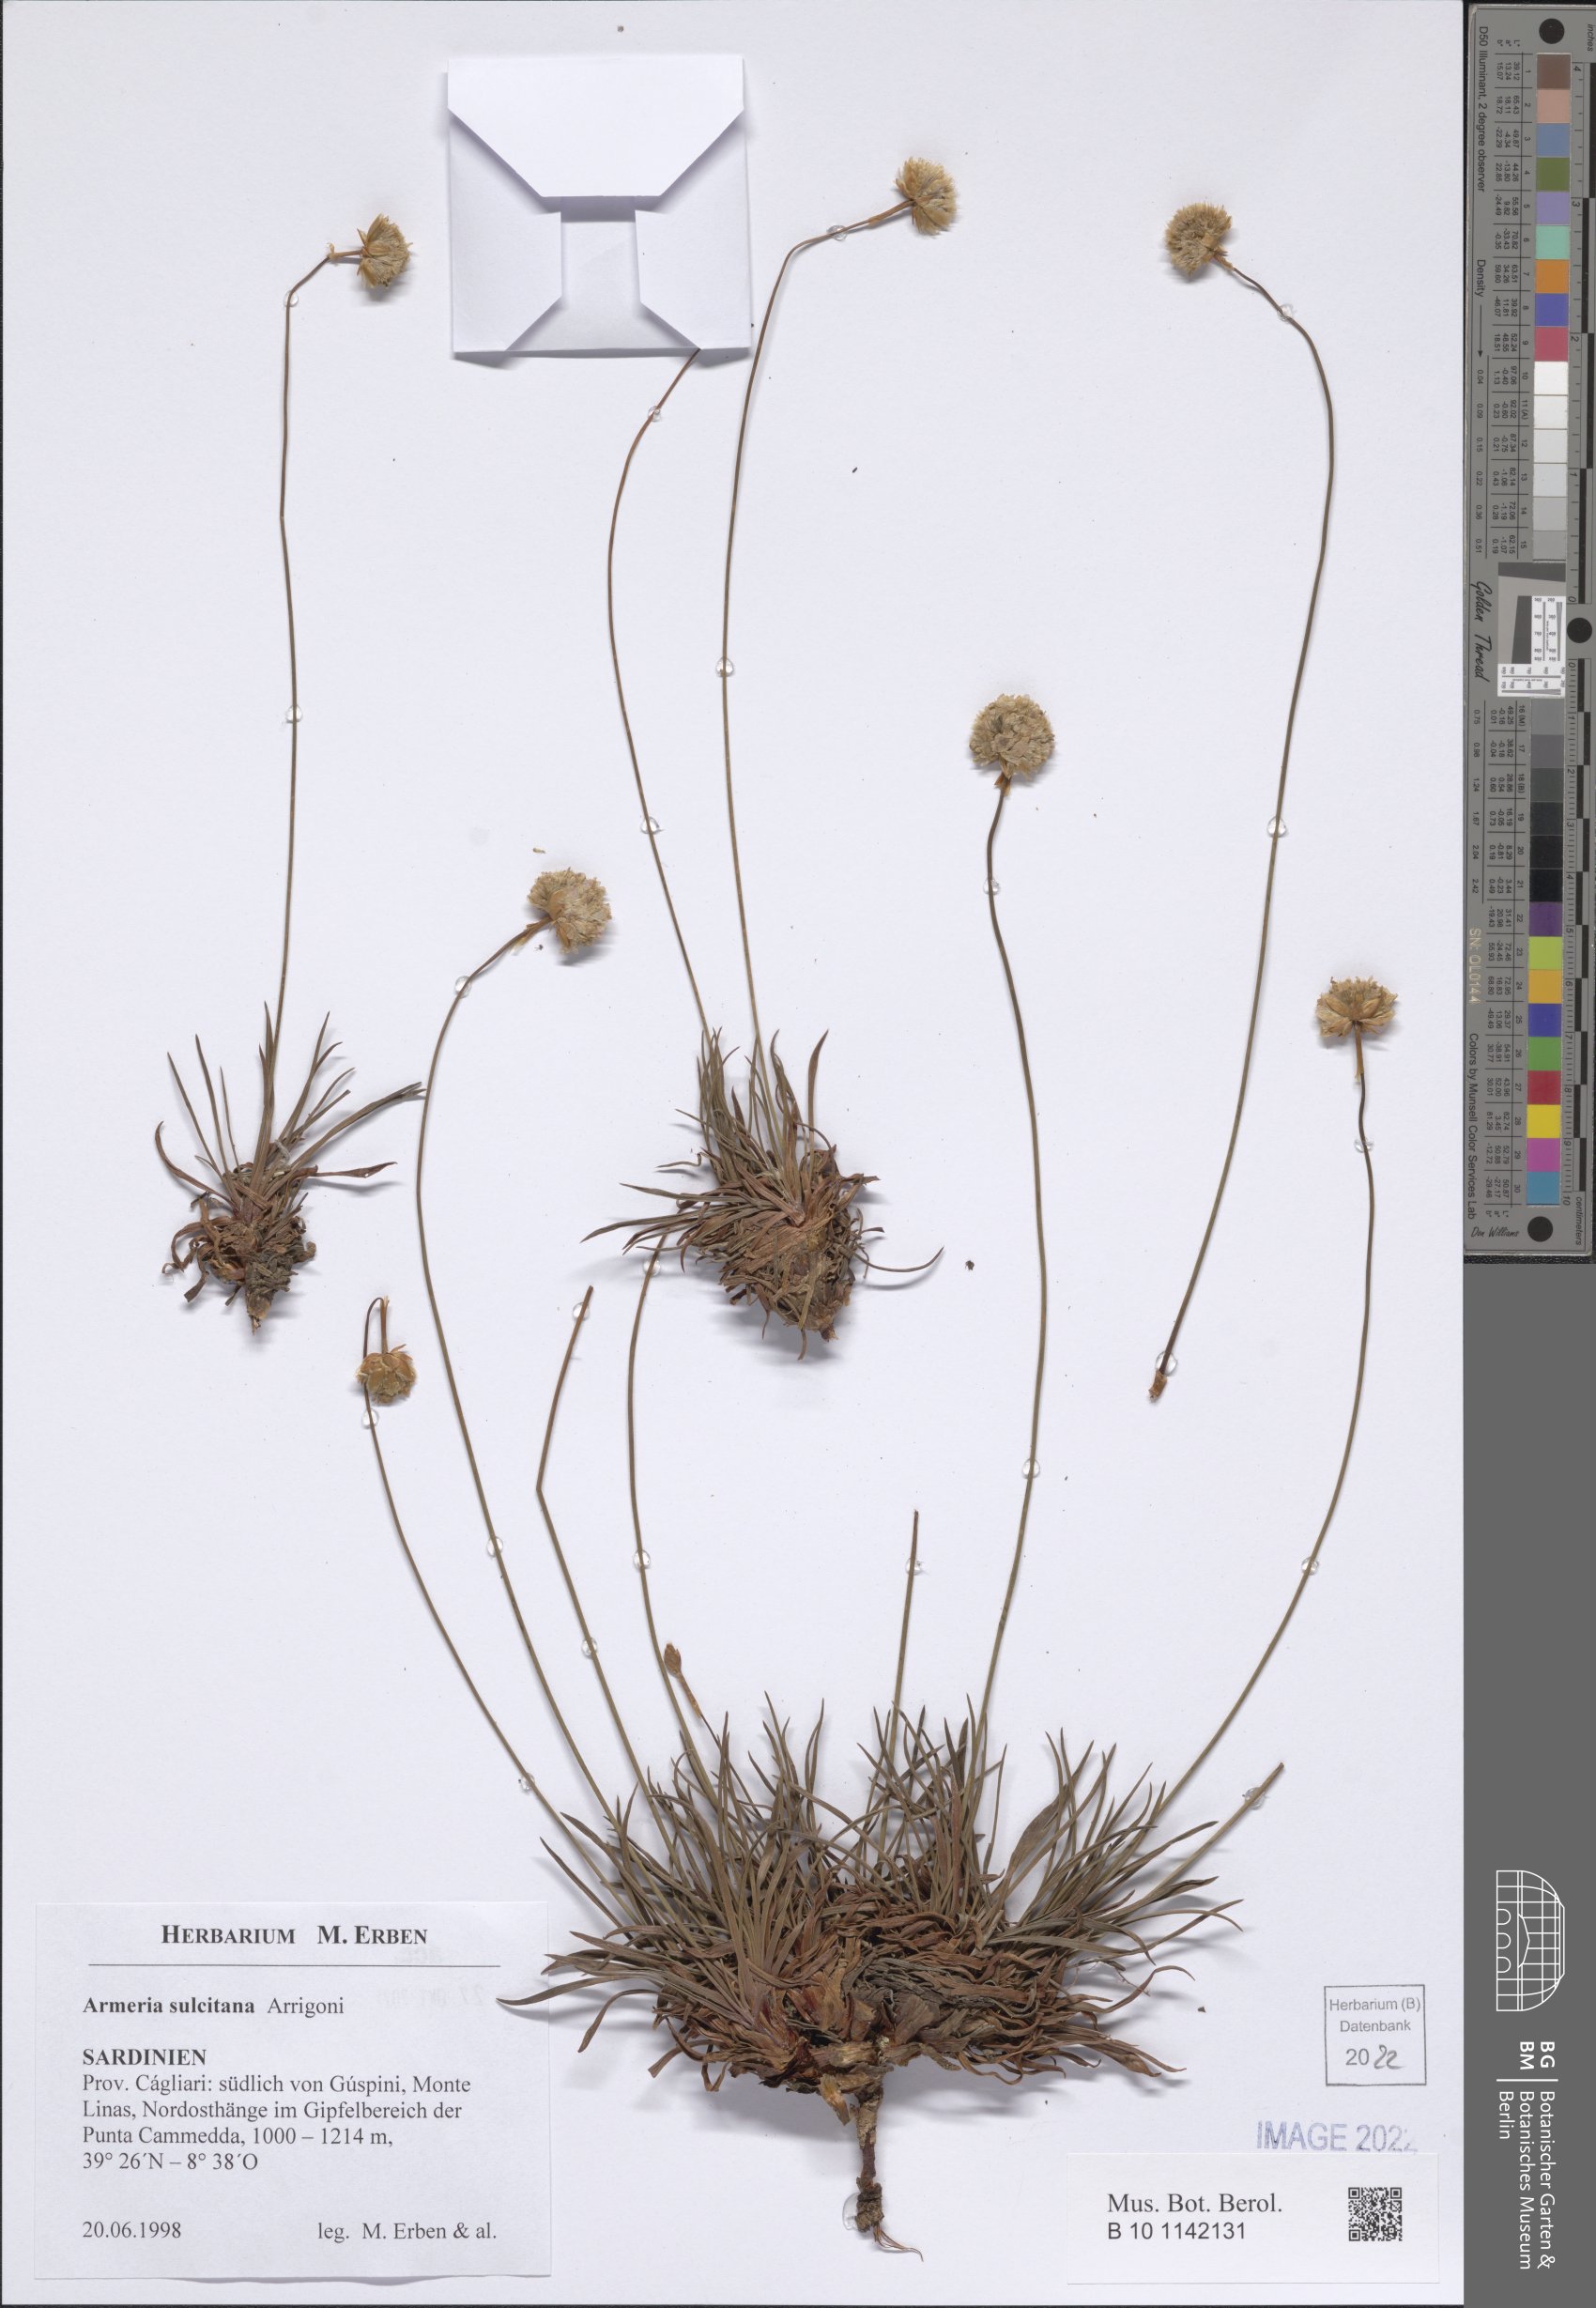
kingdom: Plantae
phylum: Tracheophyta
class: Magnoliopsida
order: Caryophyllales
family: Plumbaginaceae
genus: Armeria
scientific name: Armeria sulcitana
